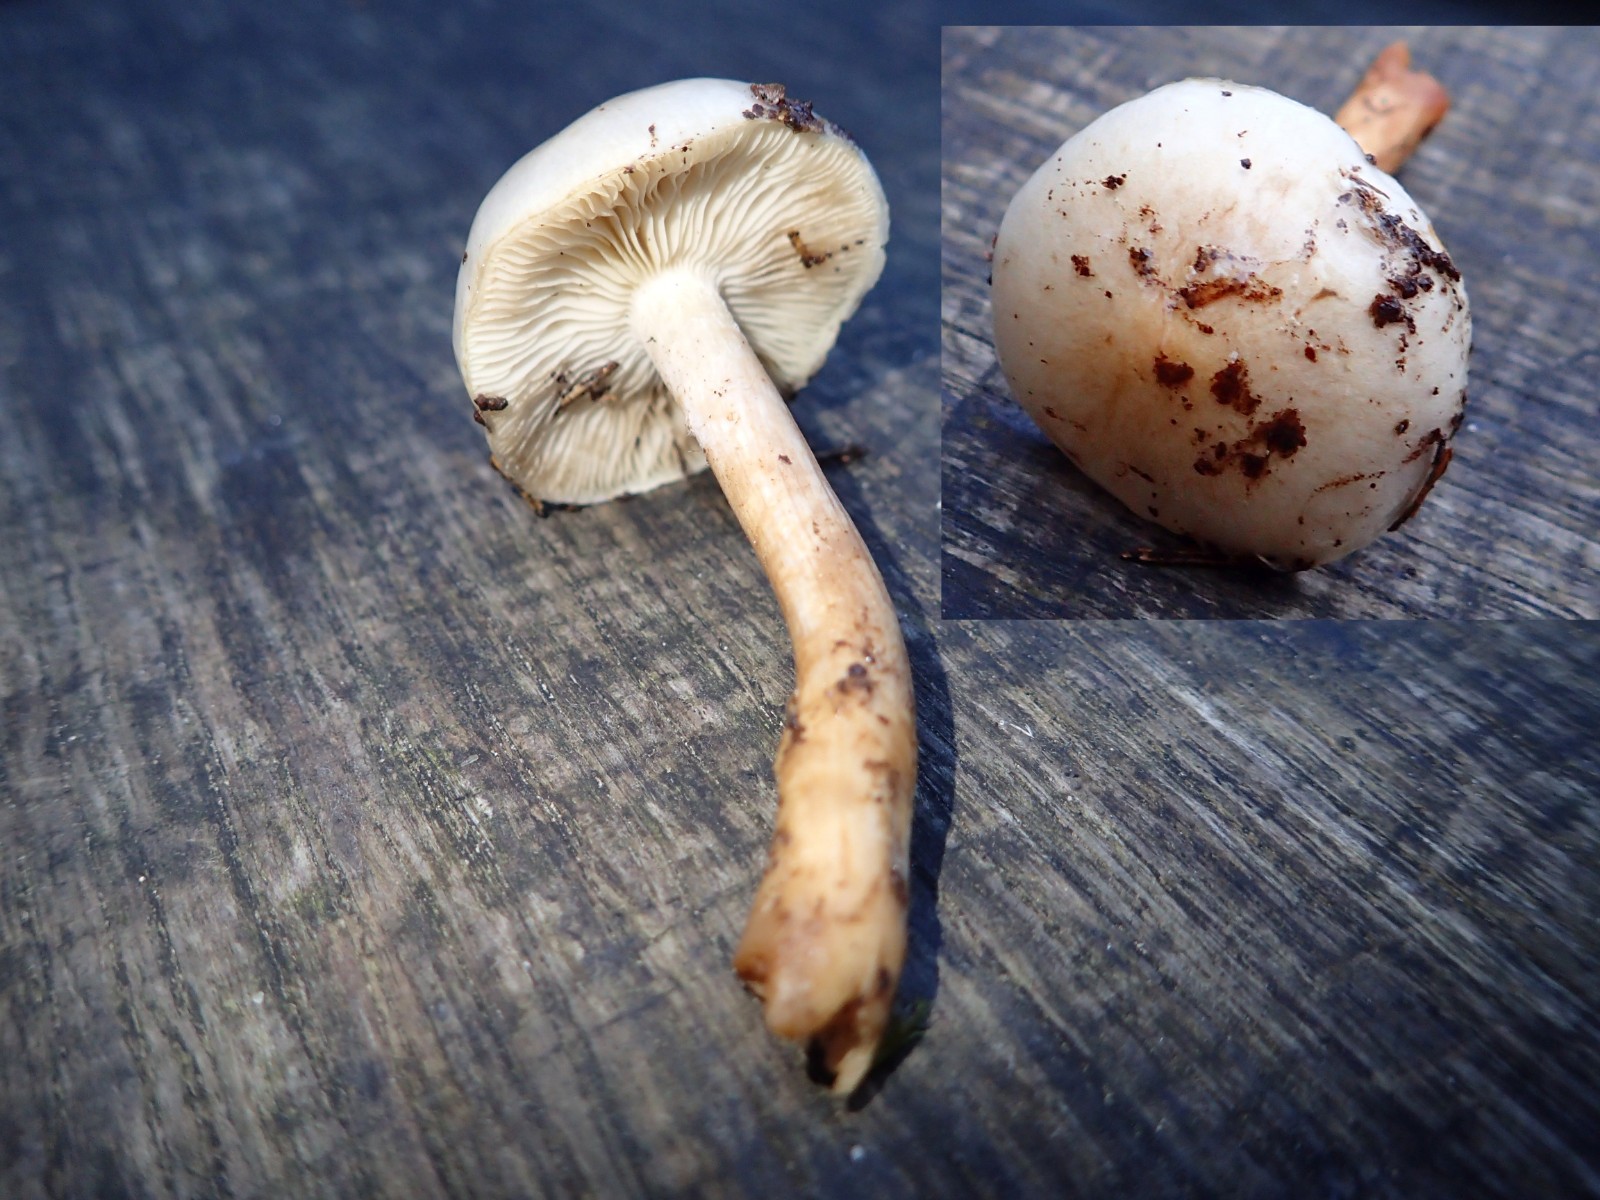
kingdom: Fungi
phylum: Basidiomycota
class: Agaricomycetes
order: Agaricales
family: Strophariaceae
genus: Pholiota
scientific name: Pholiota lenta
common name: løv-skælhat
